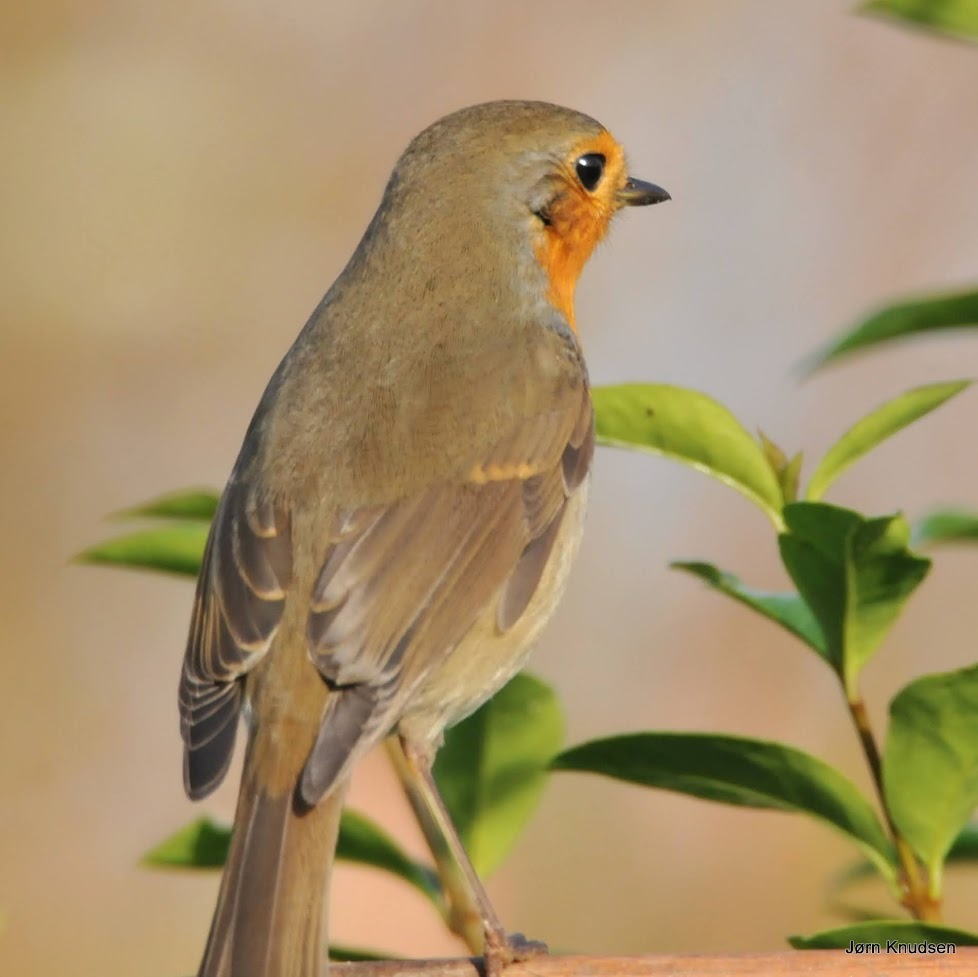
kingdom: Animalia
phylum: Chordata
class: Aves
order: Passeriformes
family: Muscicapidae
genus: Erithacus
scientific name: Erithacus rubecula
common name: Rødhals/rødkælk
